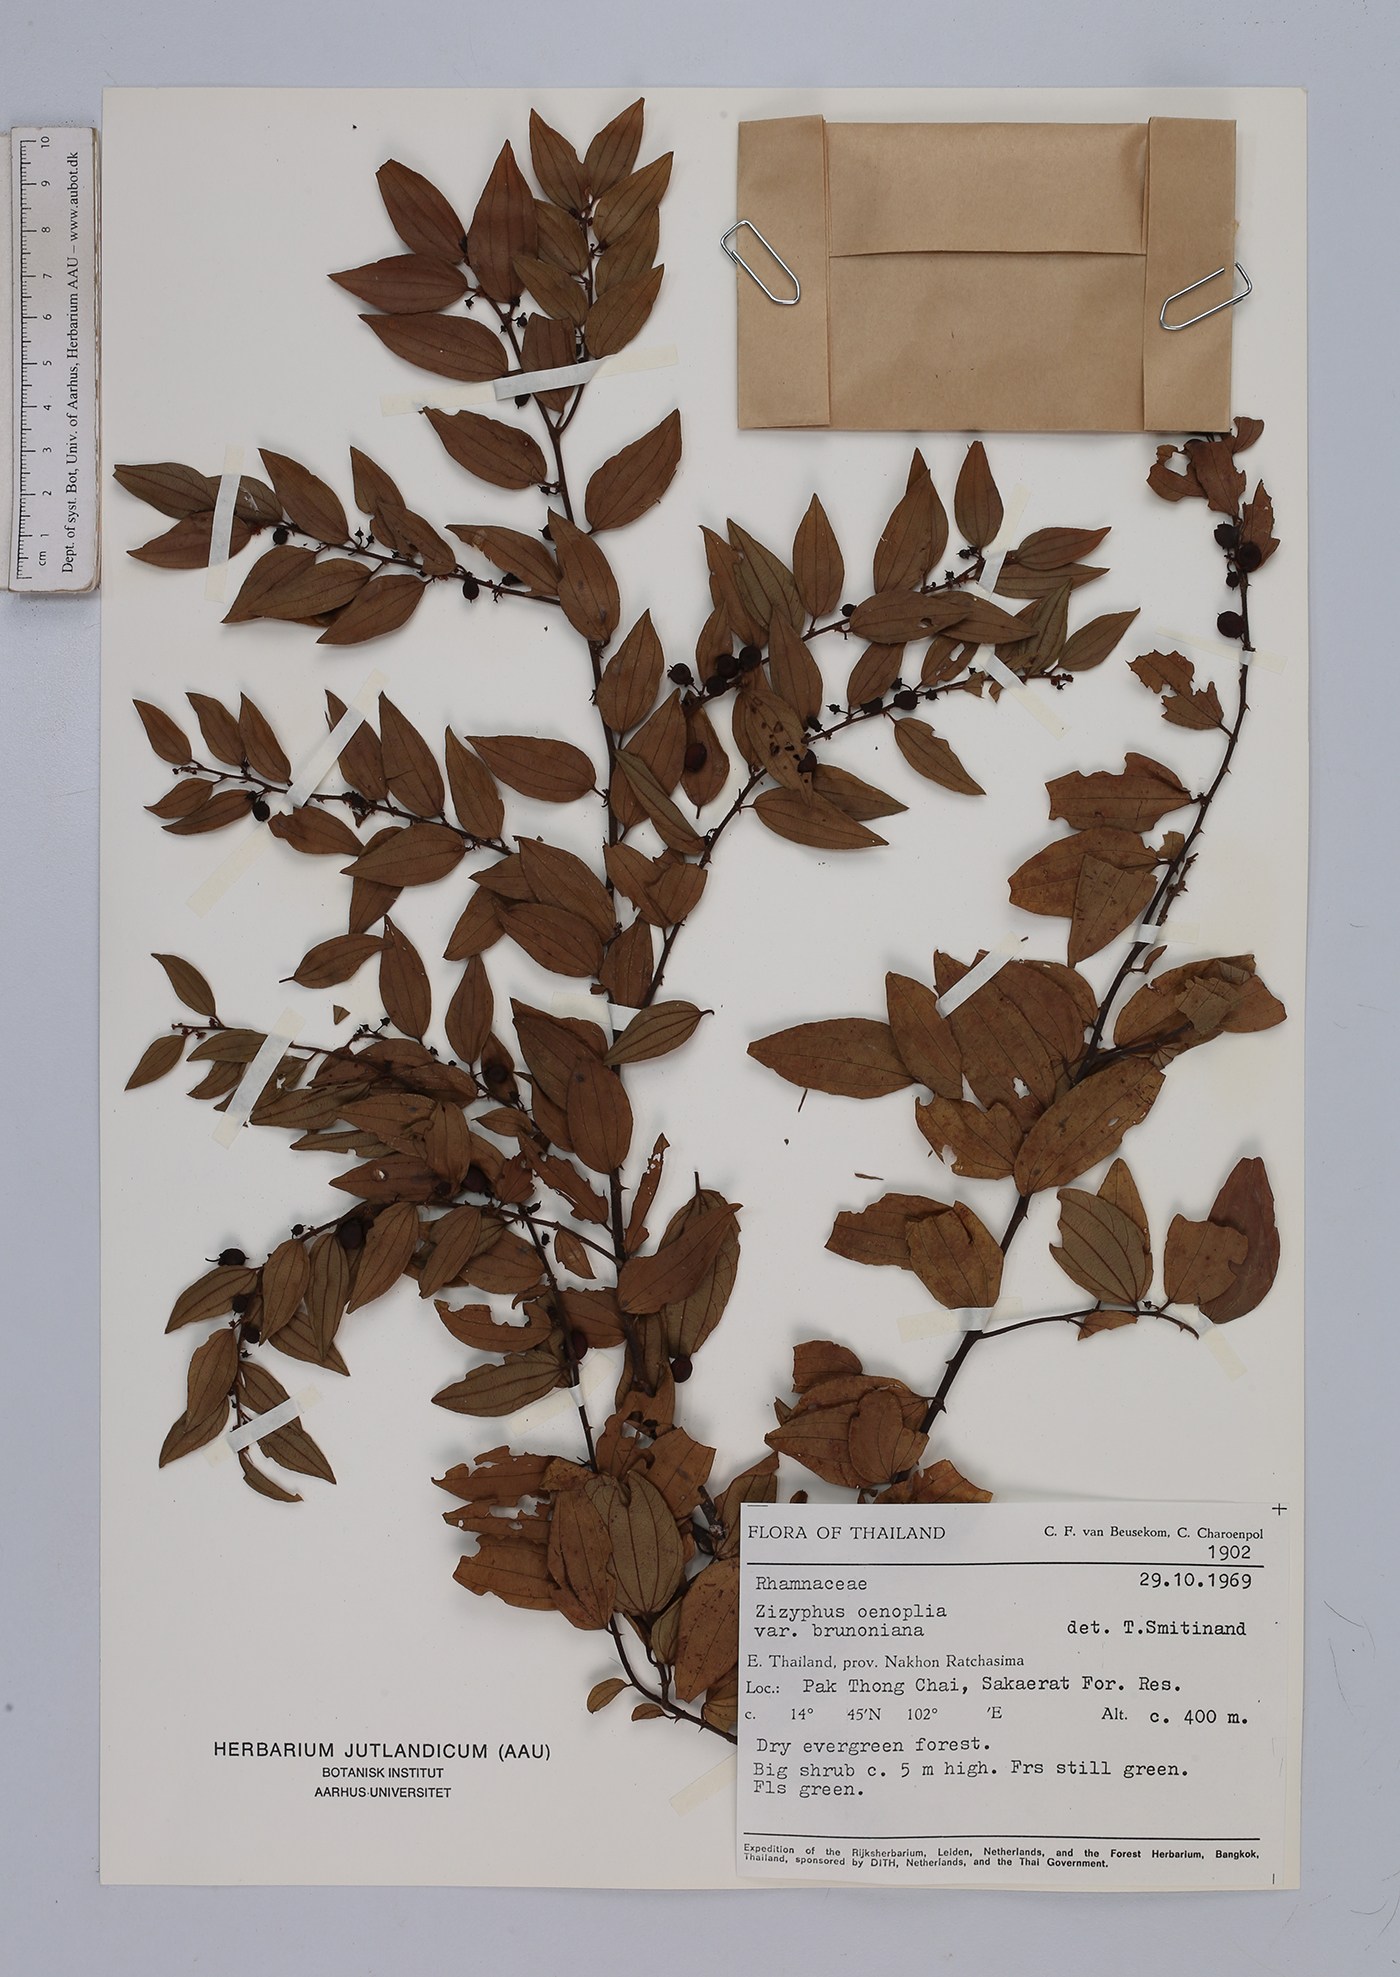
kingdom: Plantae
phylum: Tracheophyta
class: Magnoliopsida
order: Rosales
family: Rhamnaceae
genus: Ziziphus
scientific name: Ziziphus oenopolia
